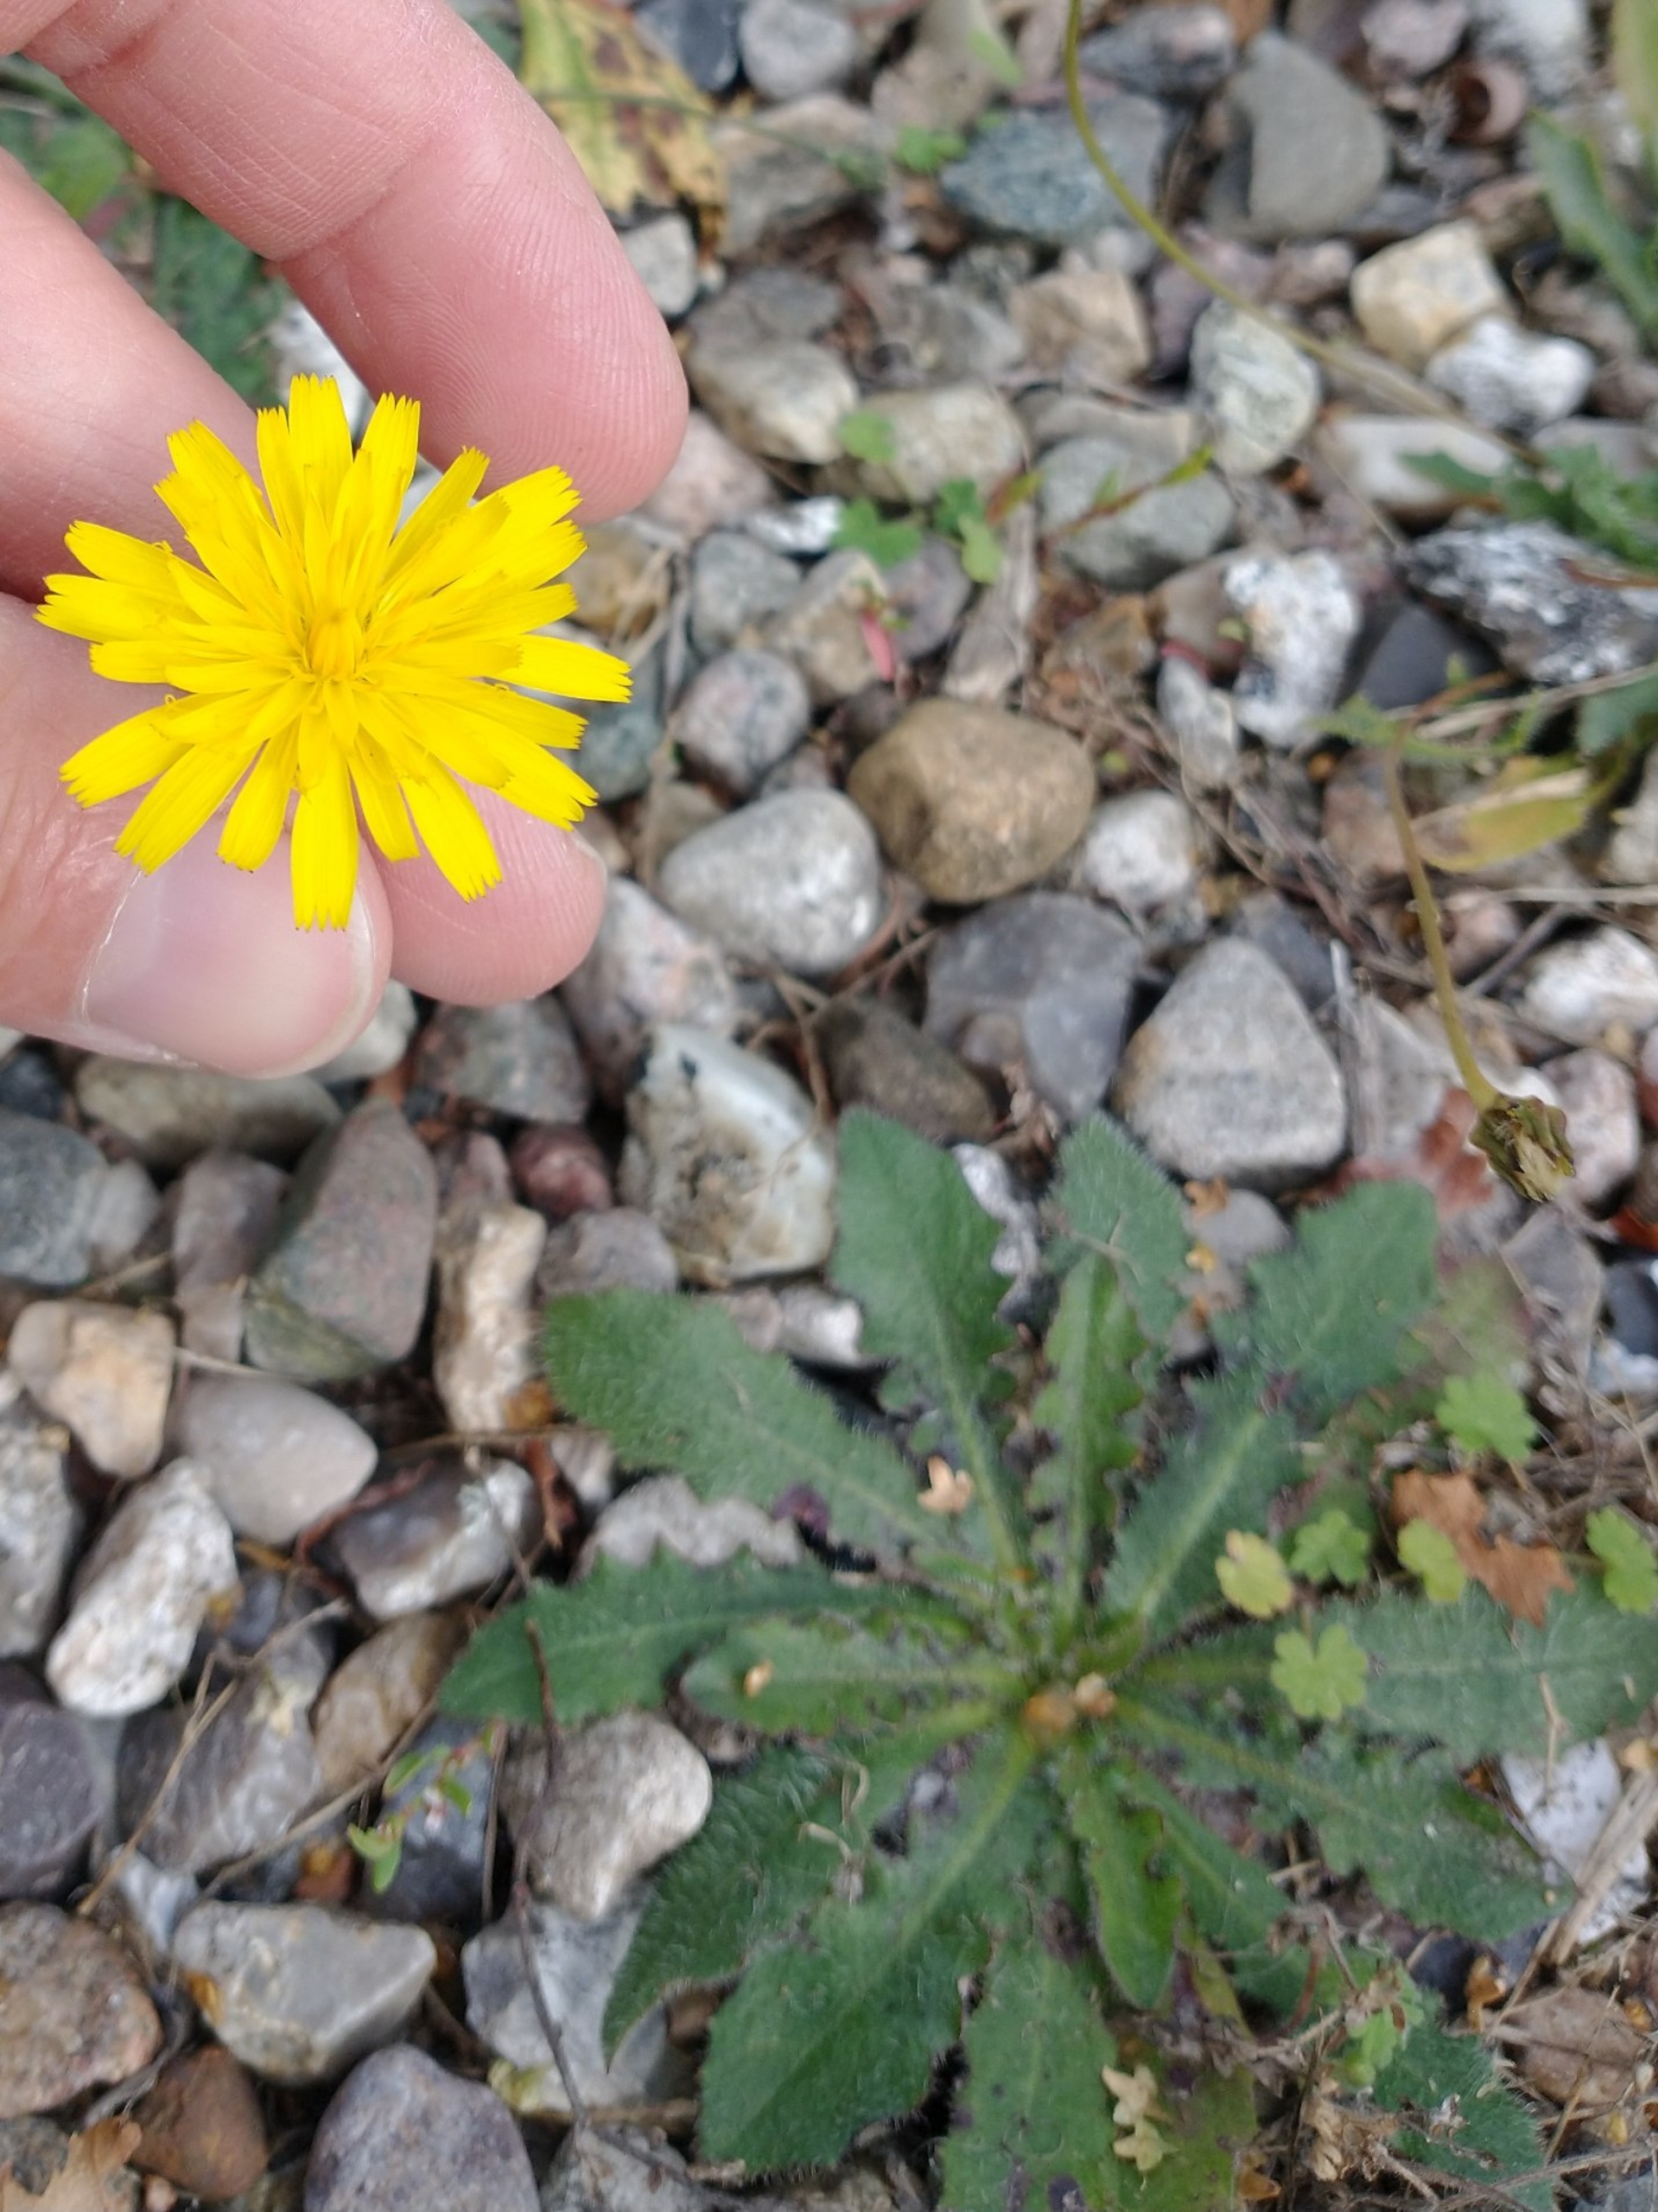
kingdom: Plantae
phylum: Tracheophyta
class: Magnoliopsida
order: Asterales
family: Asteraceae
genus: Hypochaeris
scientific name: Hypochaeris radicata
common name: Almindelig kongepen
